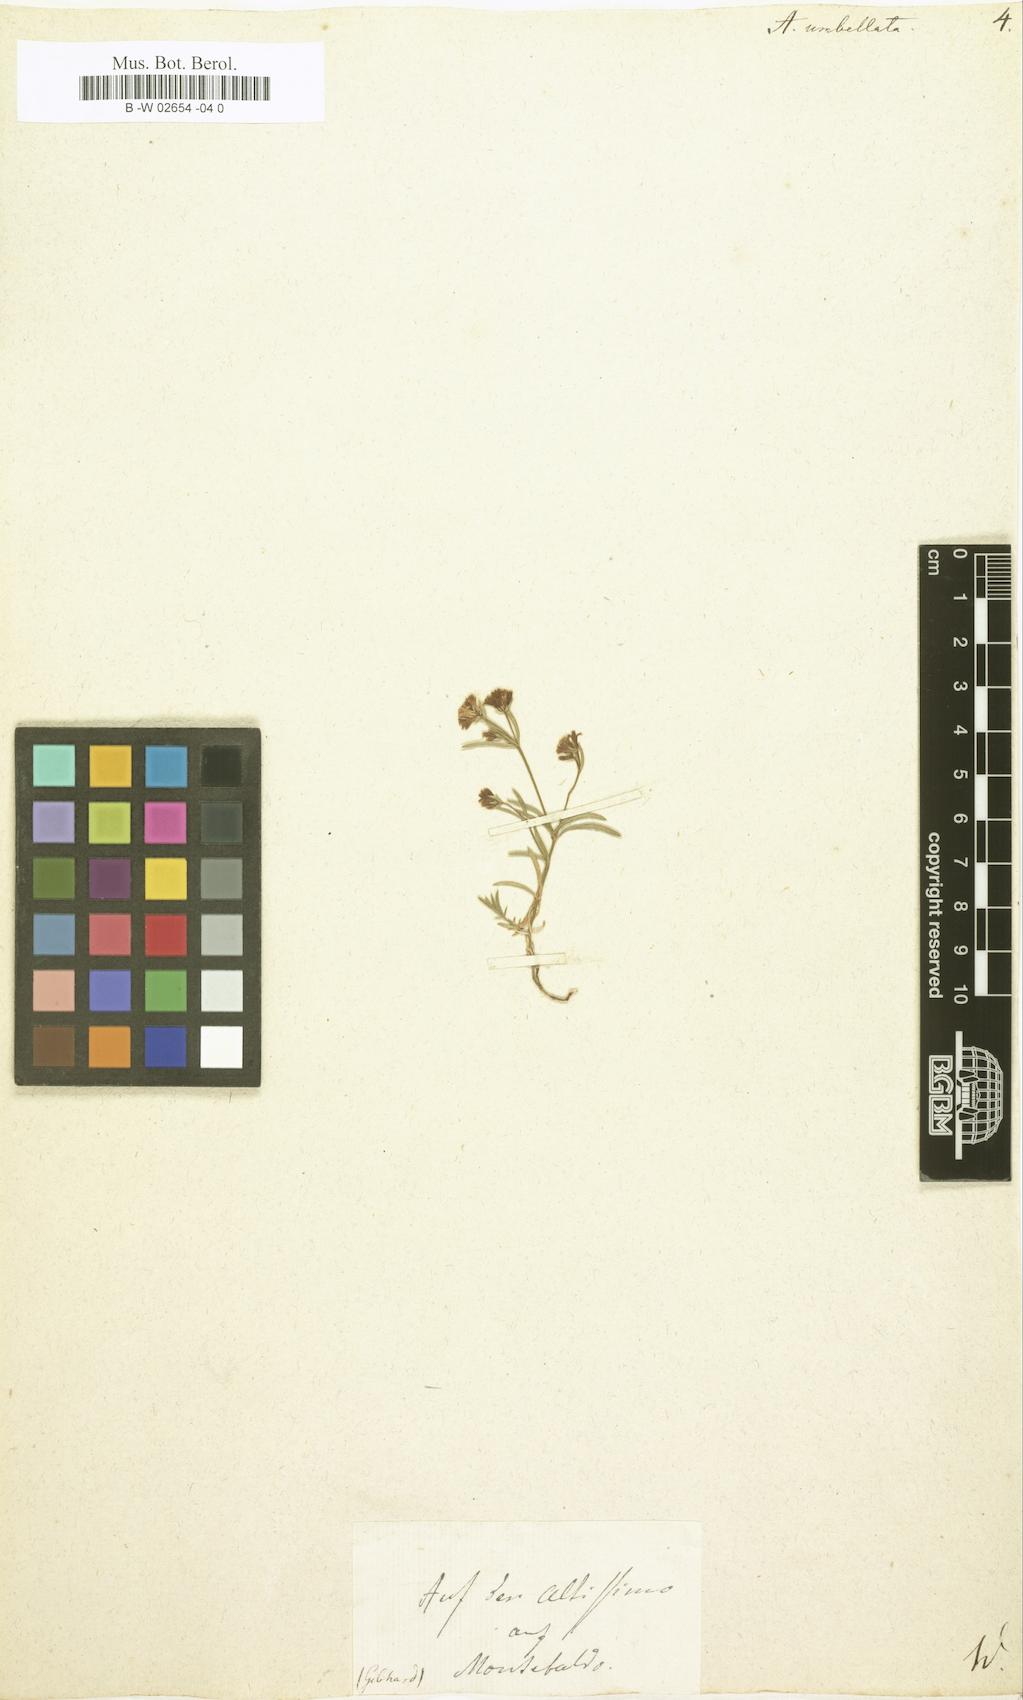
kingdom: Plantae
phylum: Tracheophyta
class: Magnoliopsida
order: Gentianales
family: Rubiaceae
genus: Hexaphylla
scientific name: Hexaphylla capitata
